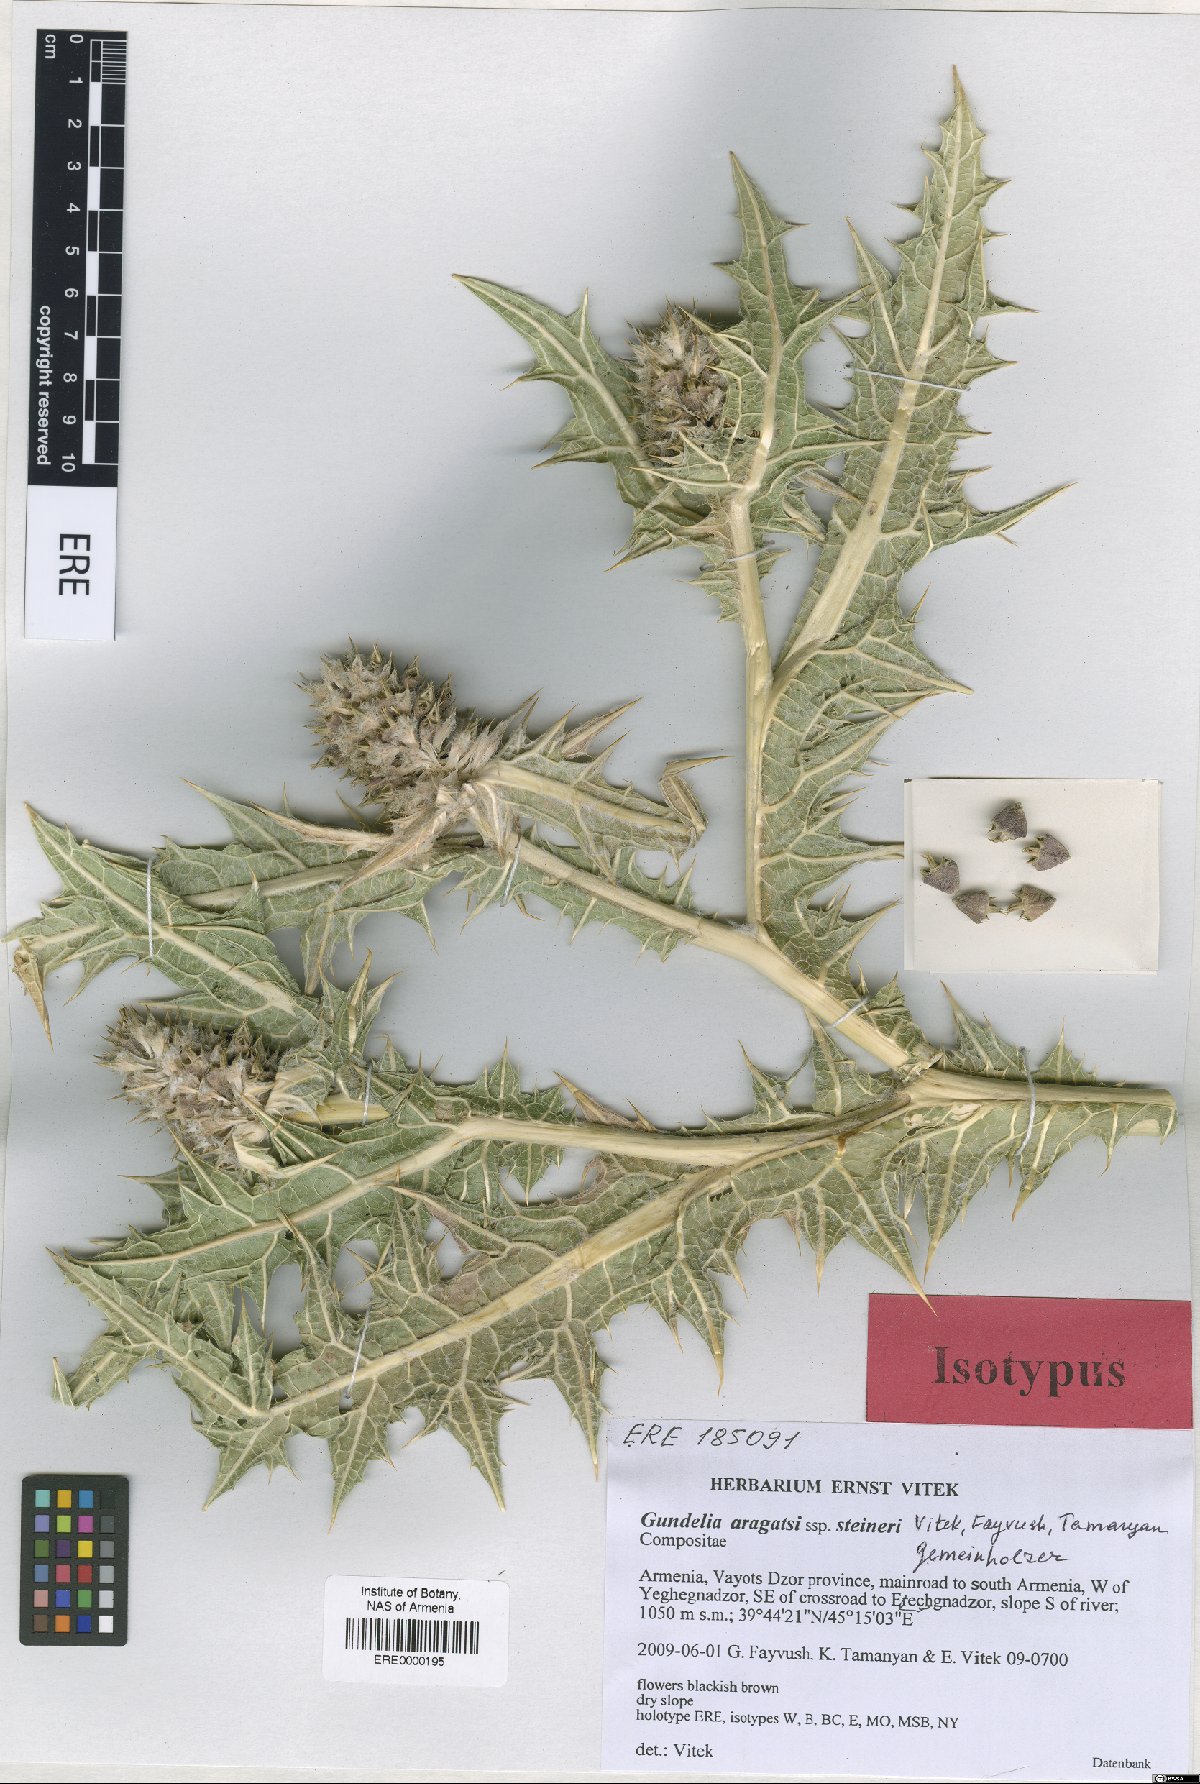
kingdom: Plantae
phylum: Tracheophyta
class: Magnoliopsida
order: Asterales
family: Asteraceae
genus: Gundelia
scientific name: Gundelia aragatsi
